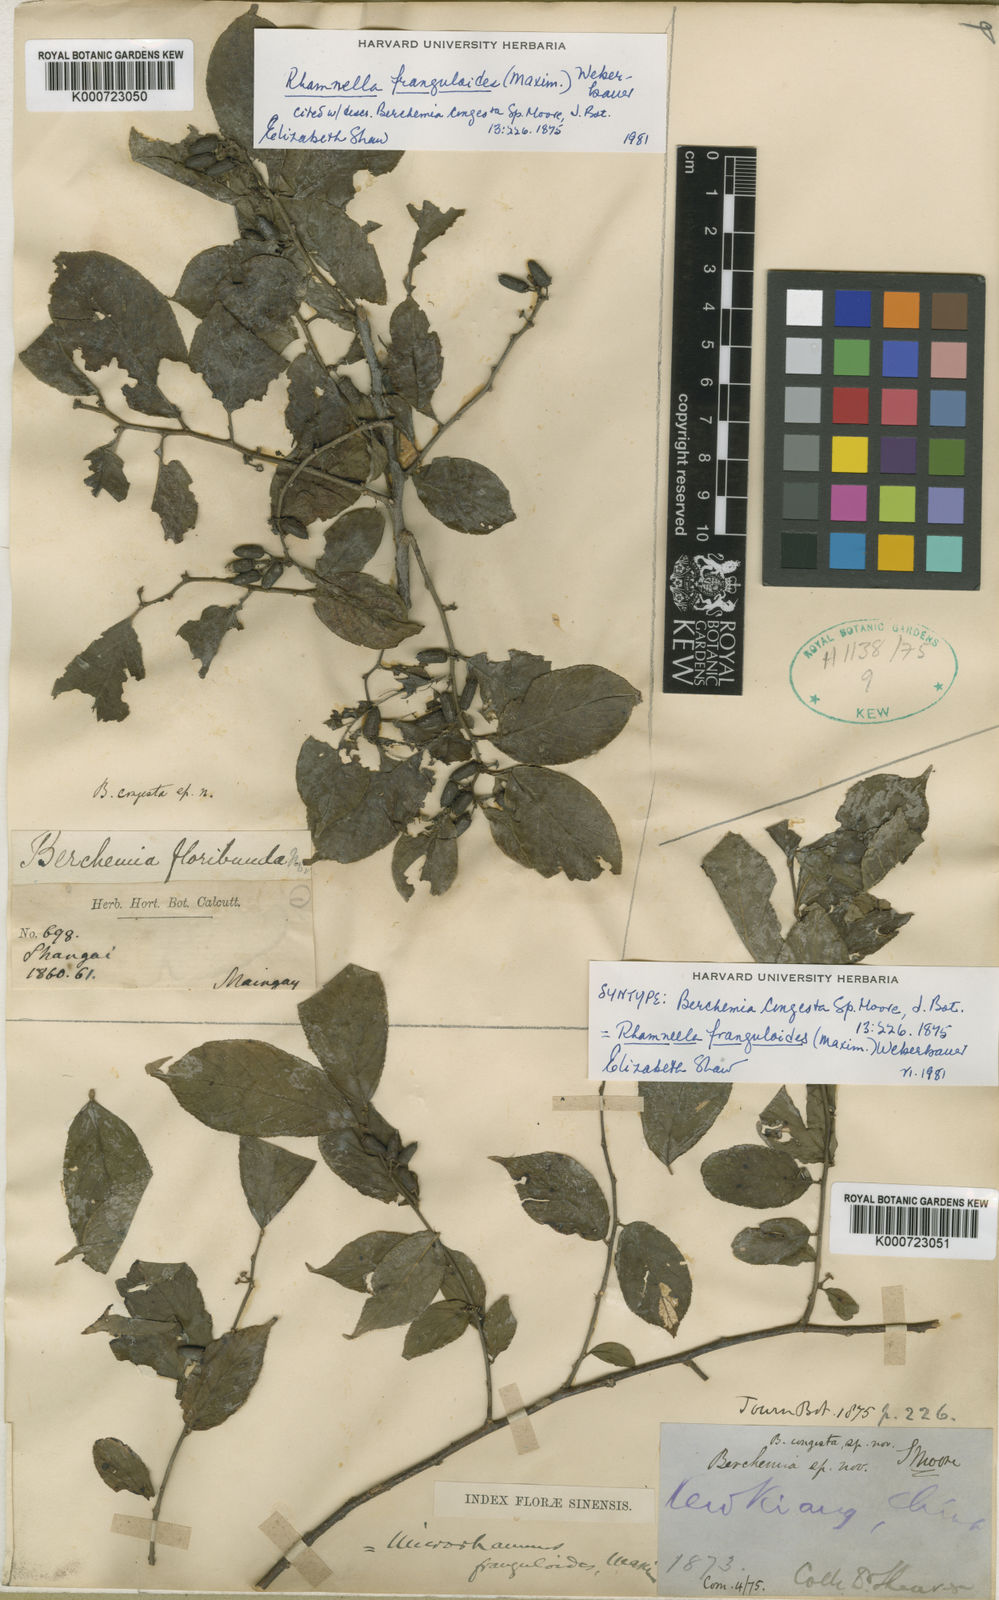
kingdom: Plantae
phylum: Tracheophyta
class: Magnoliopsida
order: Rosales
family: Rhamnaceae
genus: Rhamnella
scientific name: Rhamnella franguloides
